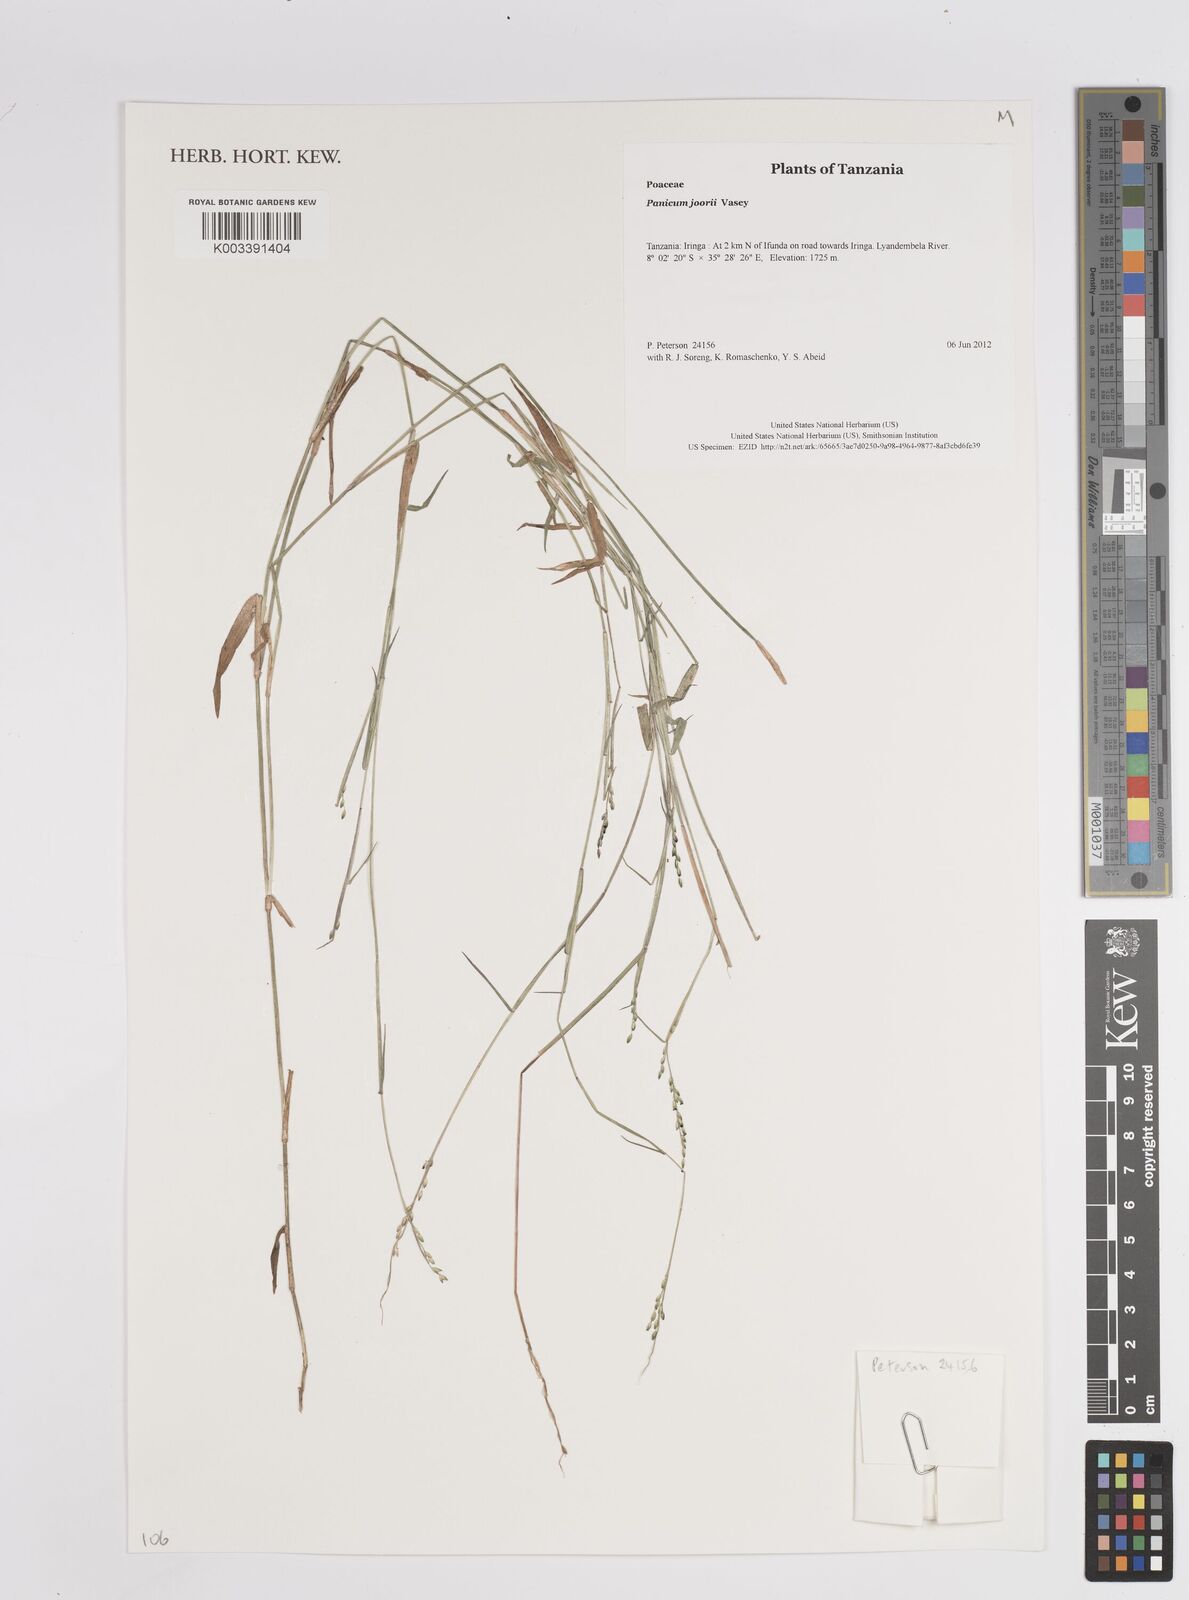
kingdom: Plantae
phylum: Tracheophyta
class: Liliopsida
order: Poales
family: Poaceae
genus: Panicum
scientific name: Panicum
